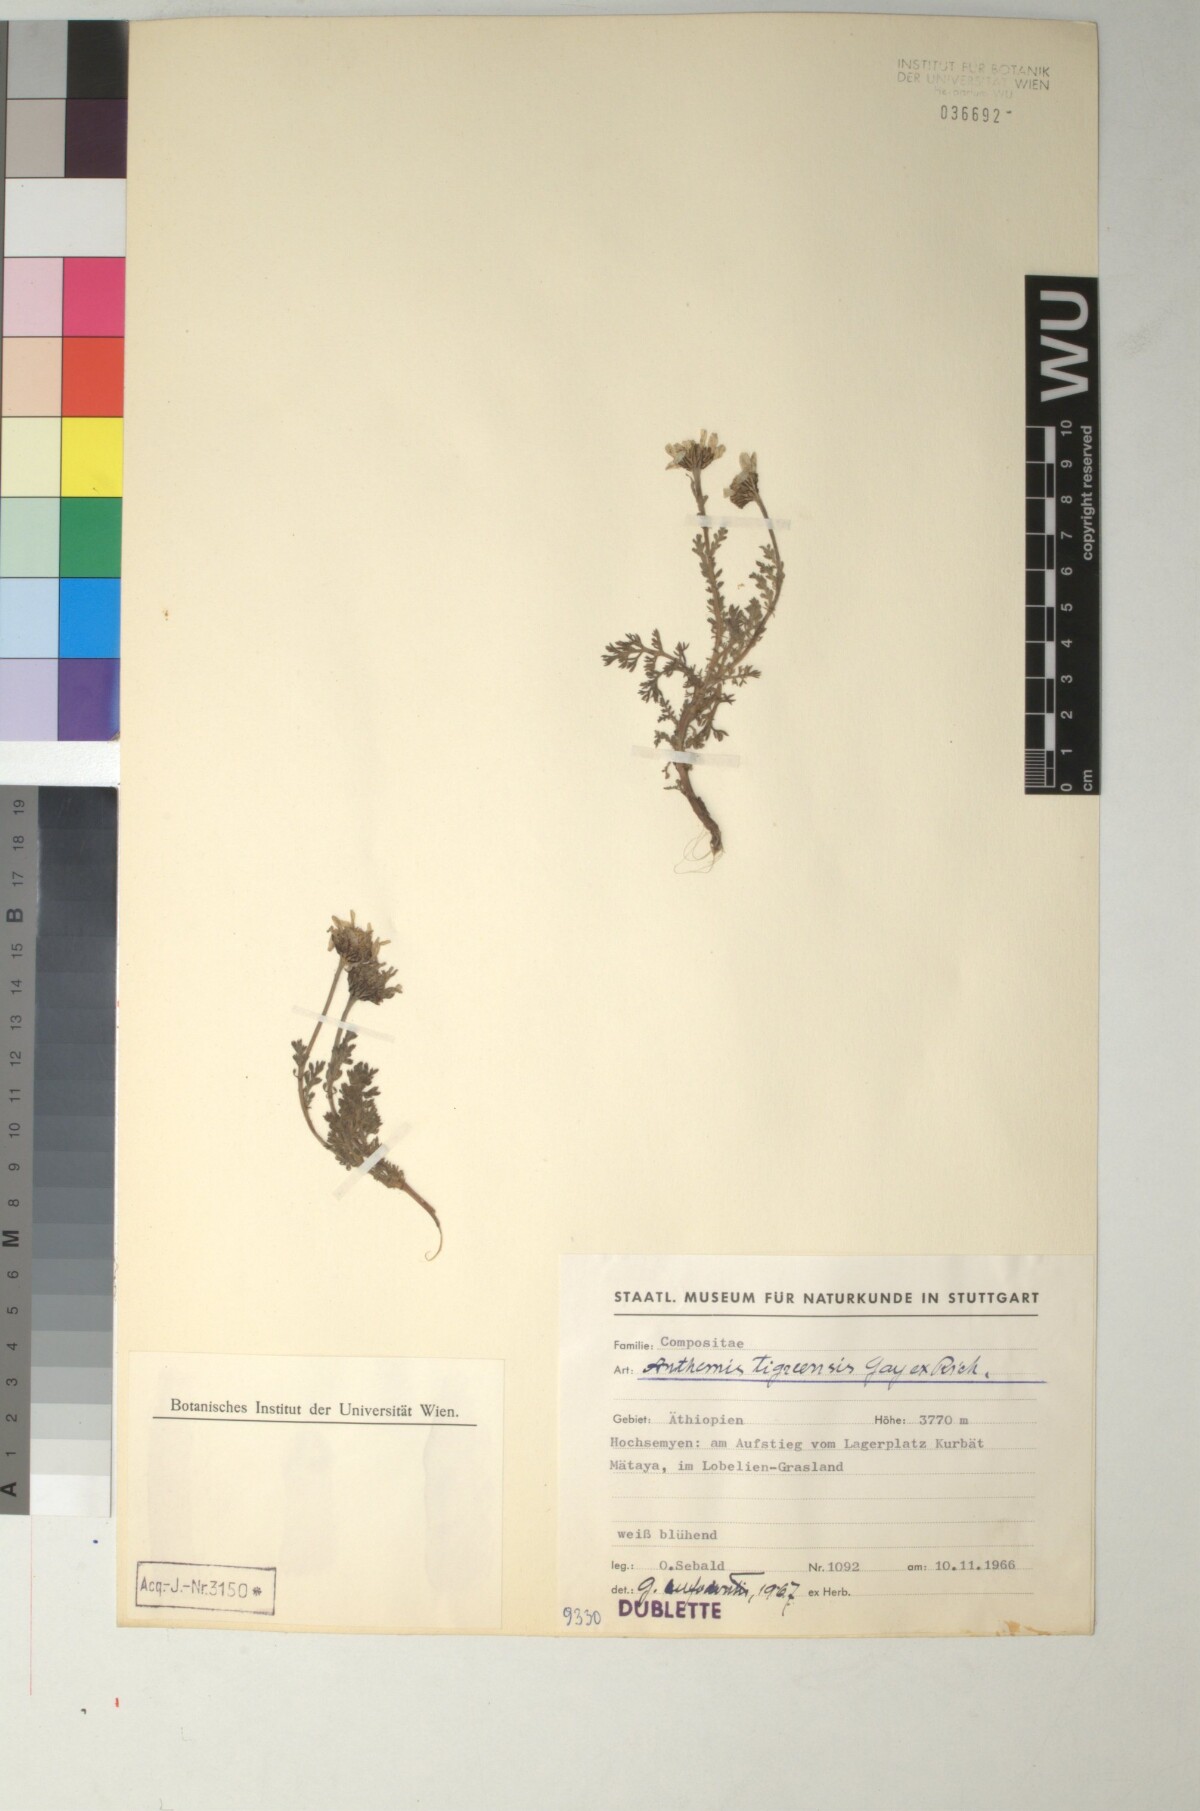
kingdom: Plantae
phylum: Tracheophyta
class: Magnoliopsida
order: Asterales
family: Asteraceae
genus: Anthemis
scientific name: Anthemis tigreensis
